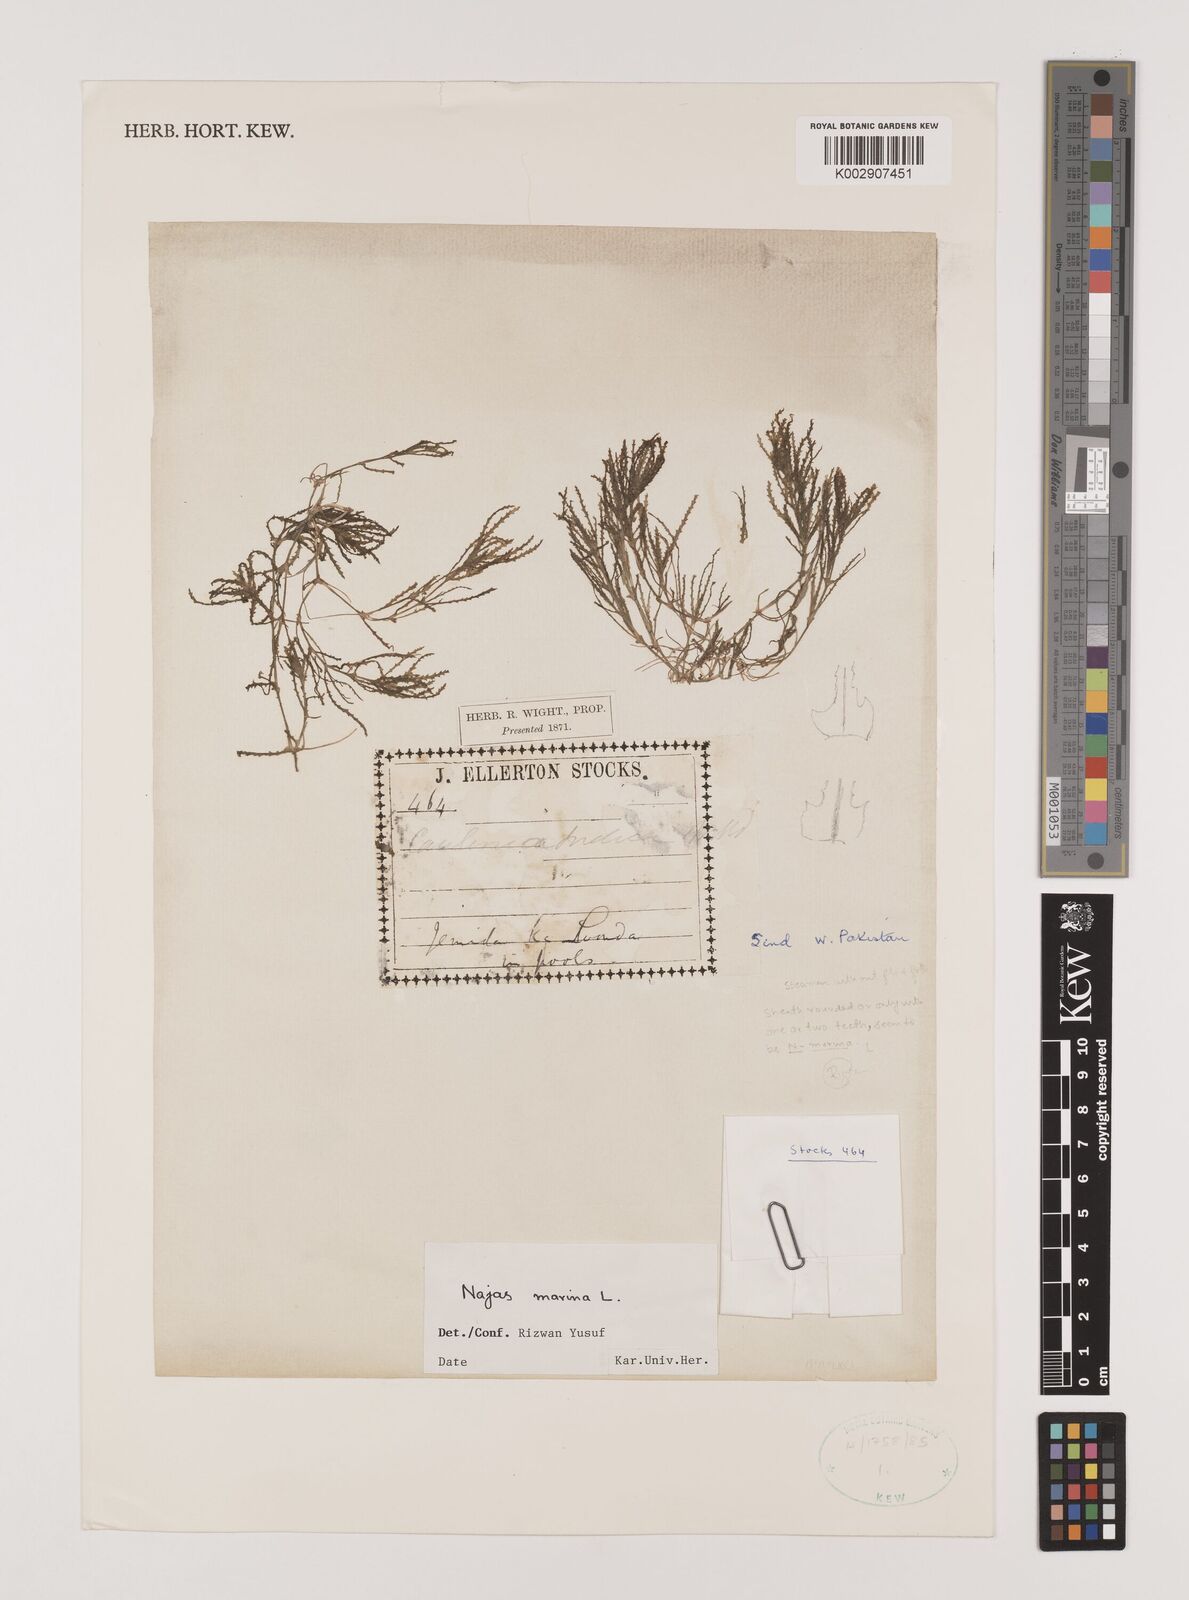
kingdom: Plantae
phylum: Tracheophyta
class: Liliopsida
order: Alismatales
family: Hydrocharitaceae
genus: Najas
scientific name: Najas marina
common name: Holly-leaved naiad
